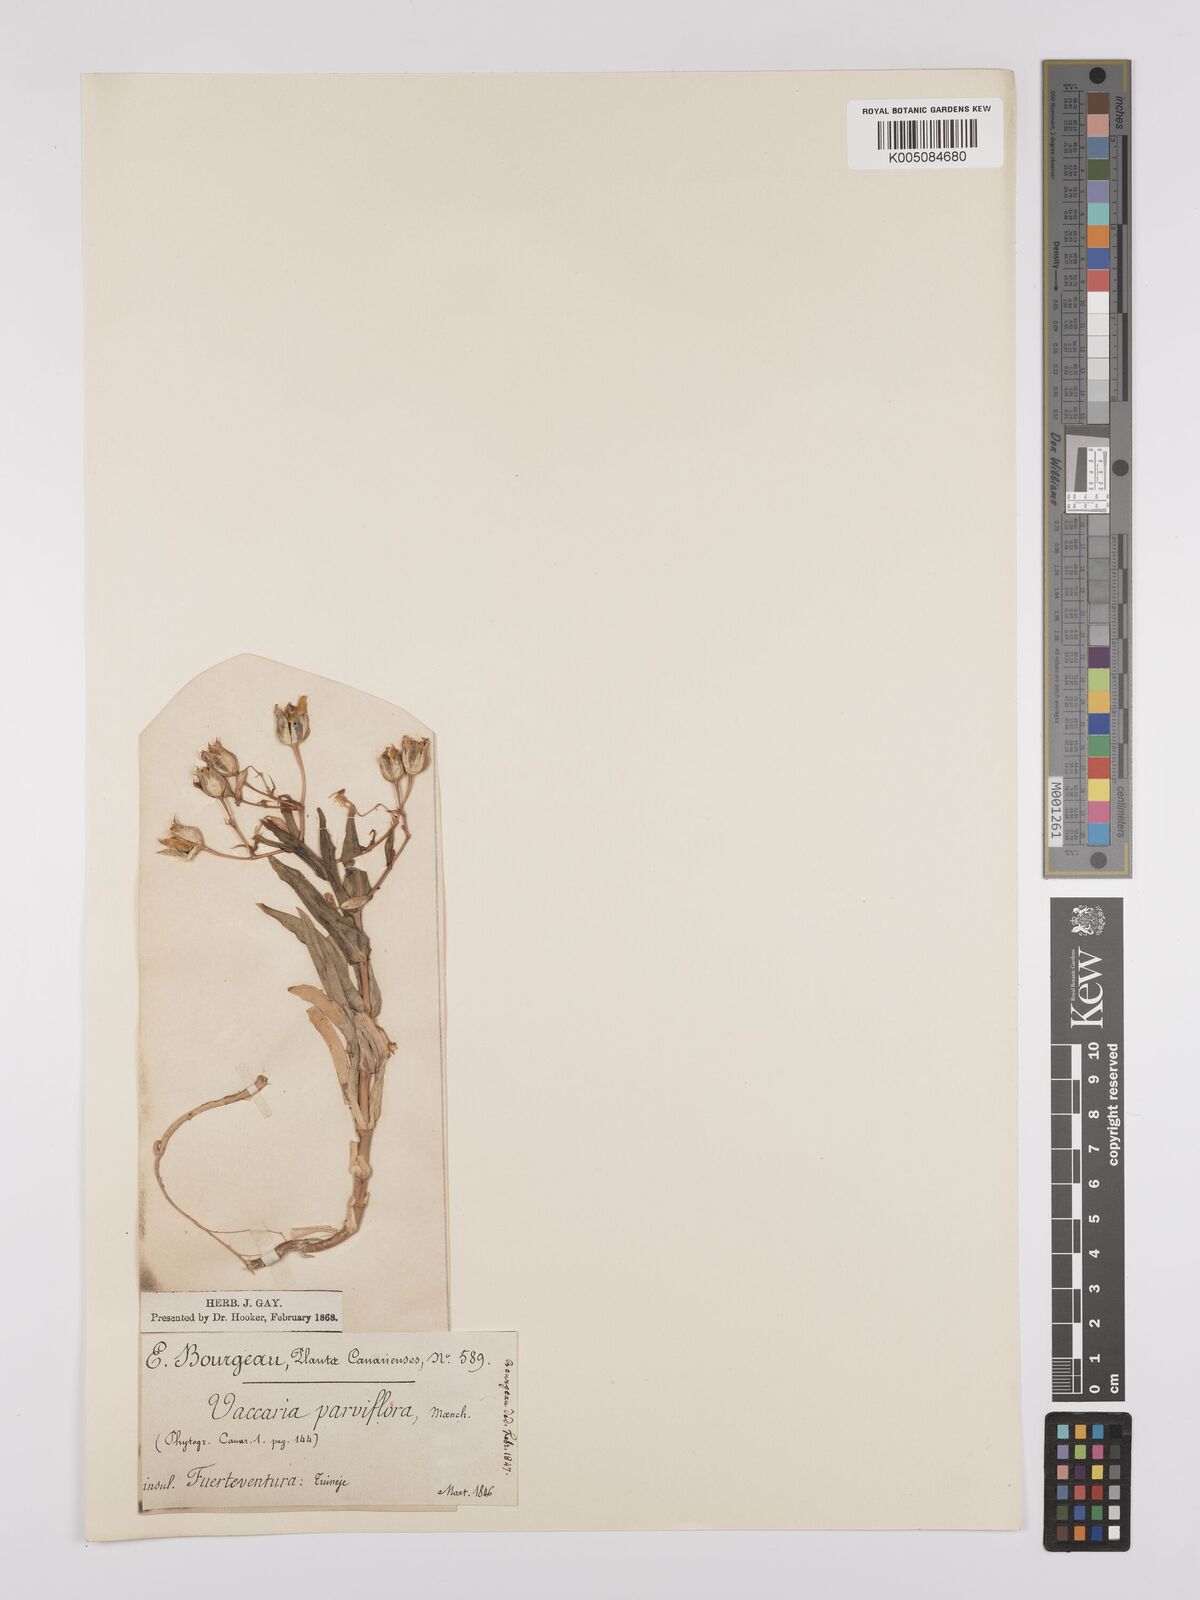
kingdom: Plantae
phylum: Tracheophyta
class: Magnoliopsida
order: Caryophyllales
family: Caryophyllaceae
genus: Gypsophila
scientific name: Gypsophila vaccaria
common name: Cow soapwort
